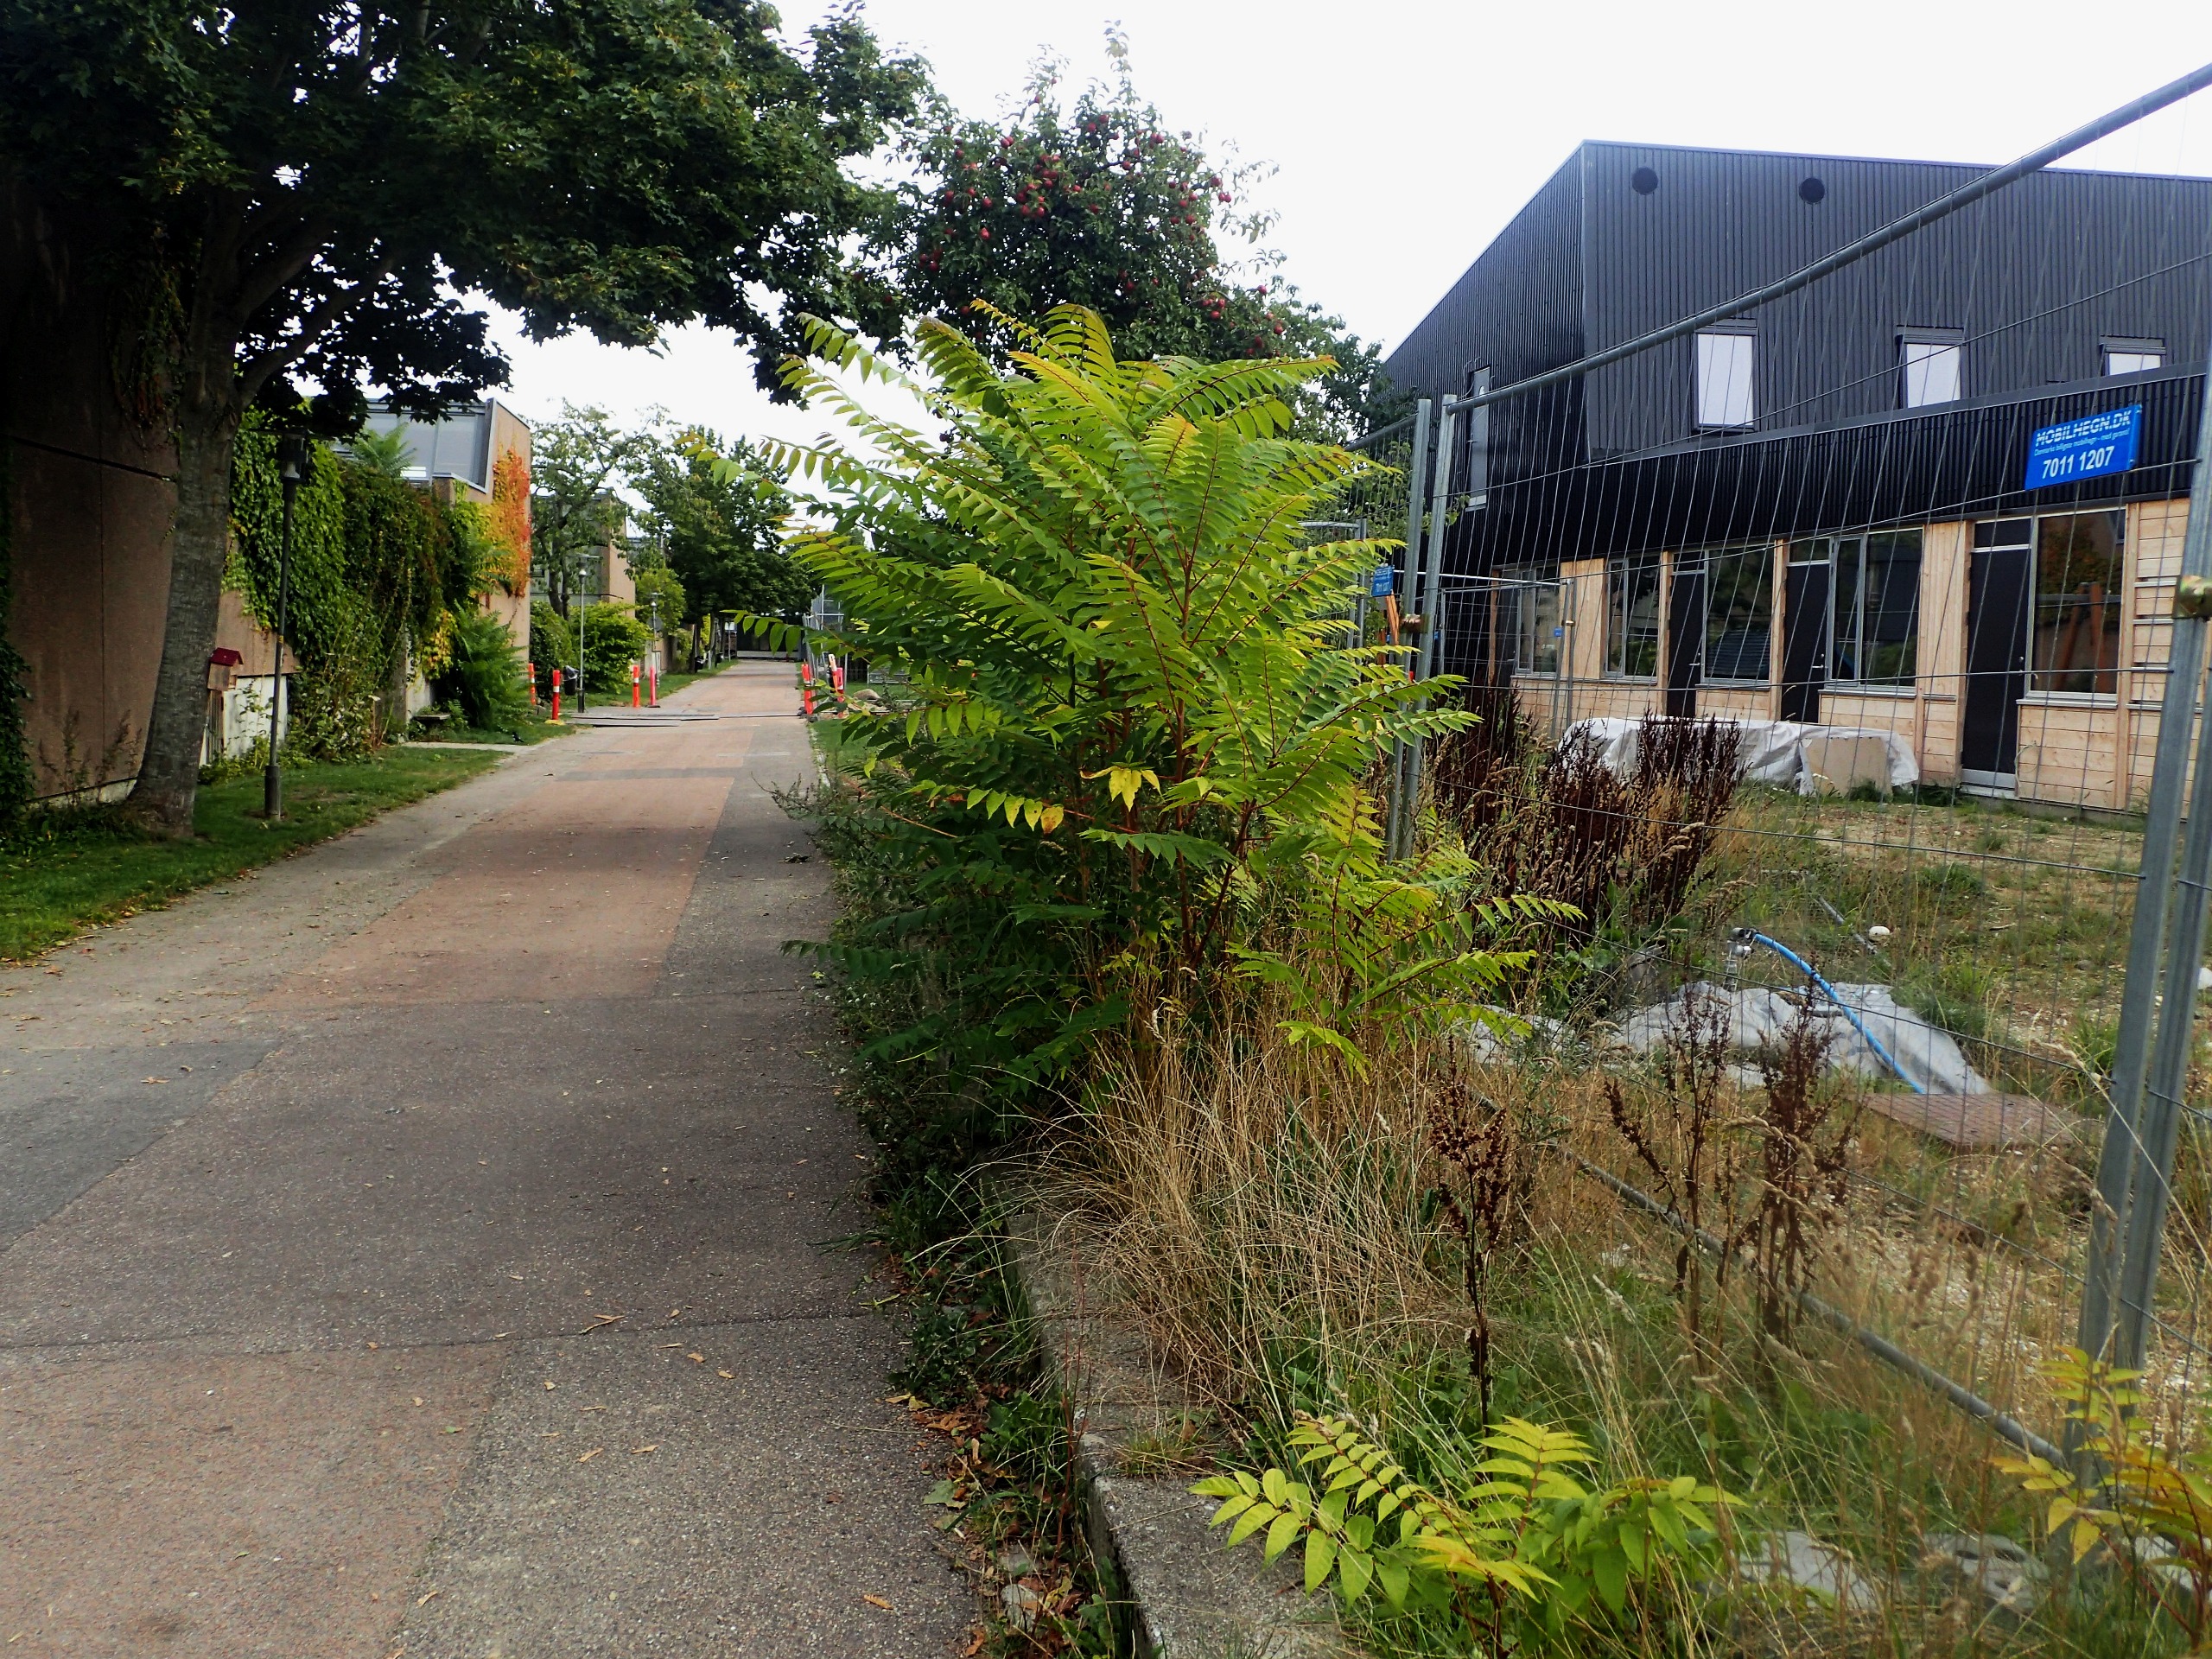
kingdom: Plantae
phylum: Tracheophyta
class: Magnoliopsida
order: Sapindales
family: Simaroubaceae
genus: Ailanthus
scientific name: Ailanthus altissima
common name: Skyrækker
